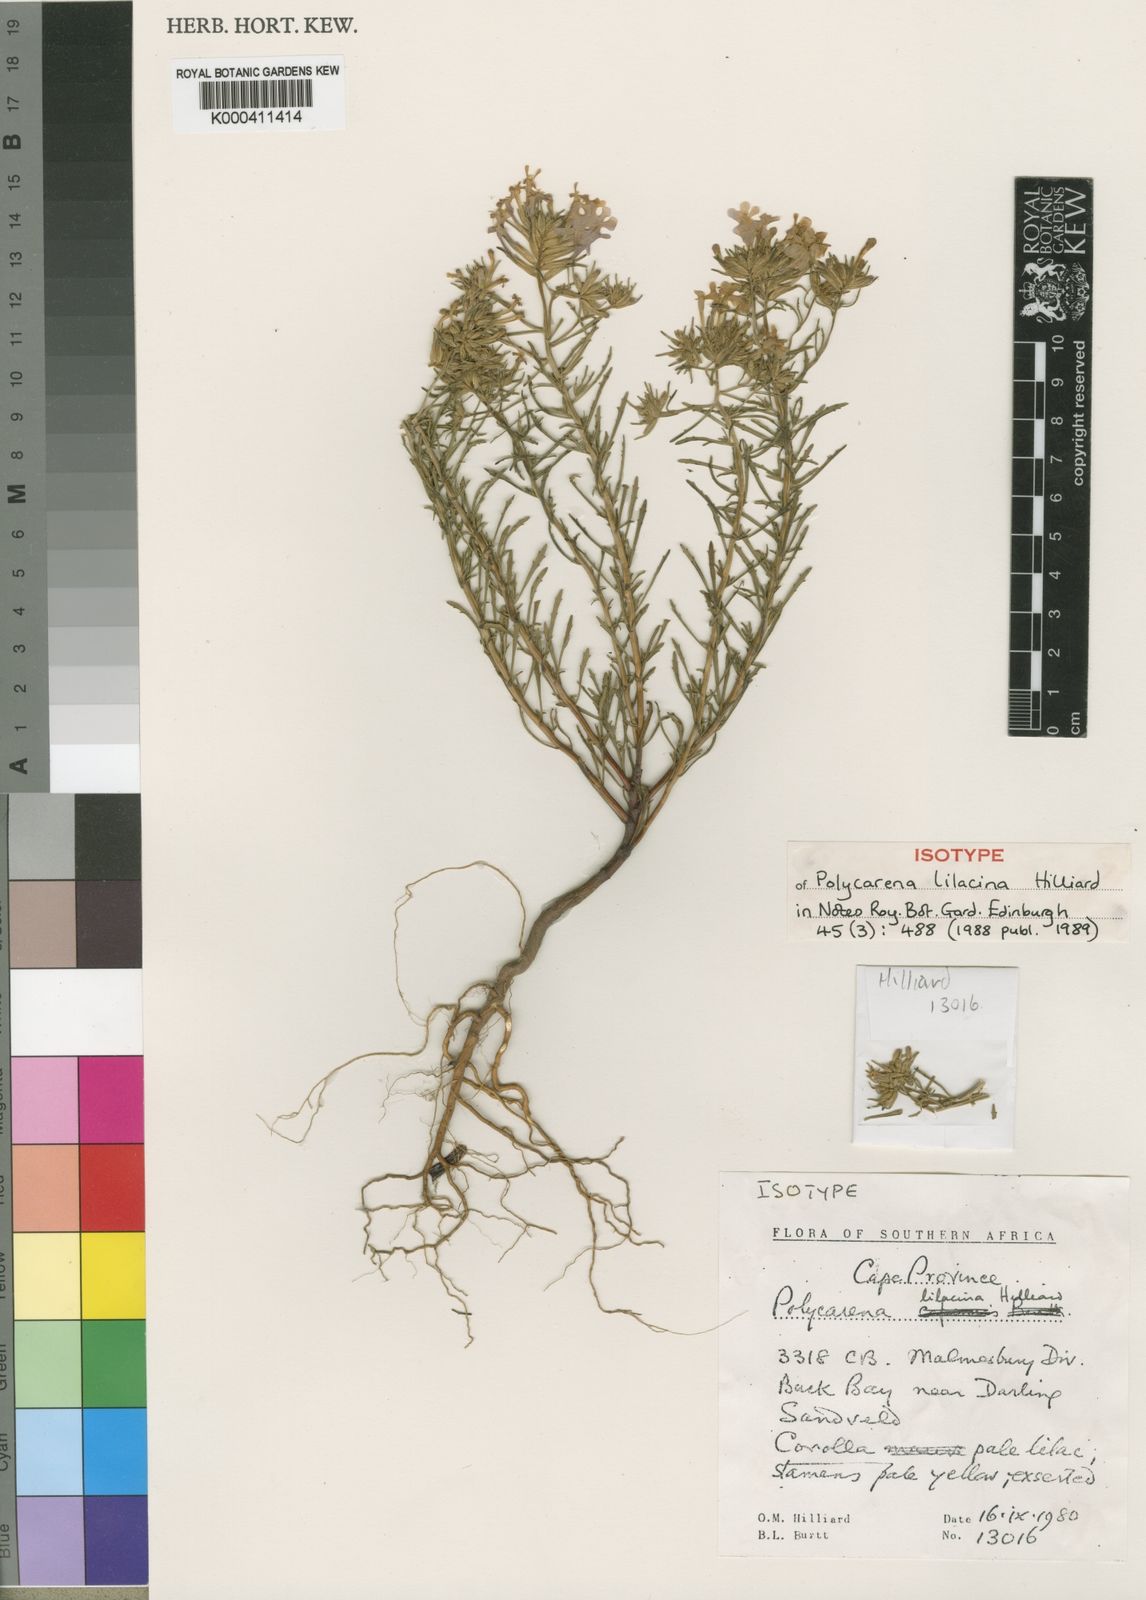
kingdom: Plantae
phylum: Tracheophyta
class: Magnoliopsida
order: Lamiales
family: Scrophulariaceae
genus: Polycarena
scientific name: Polycarena lilacina
